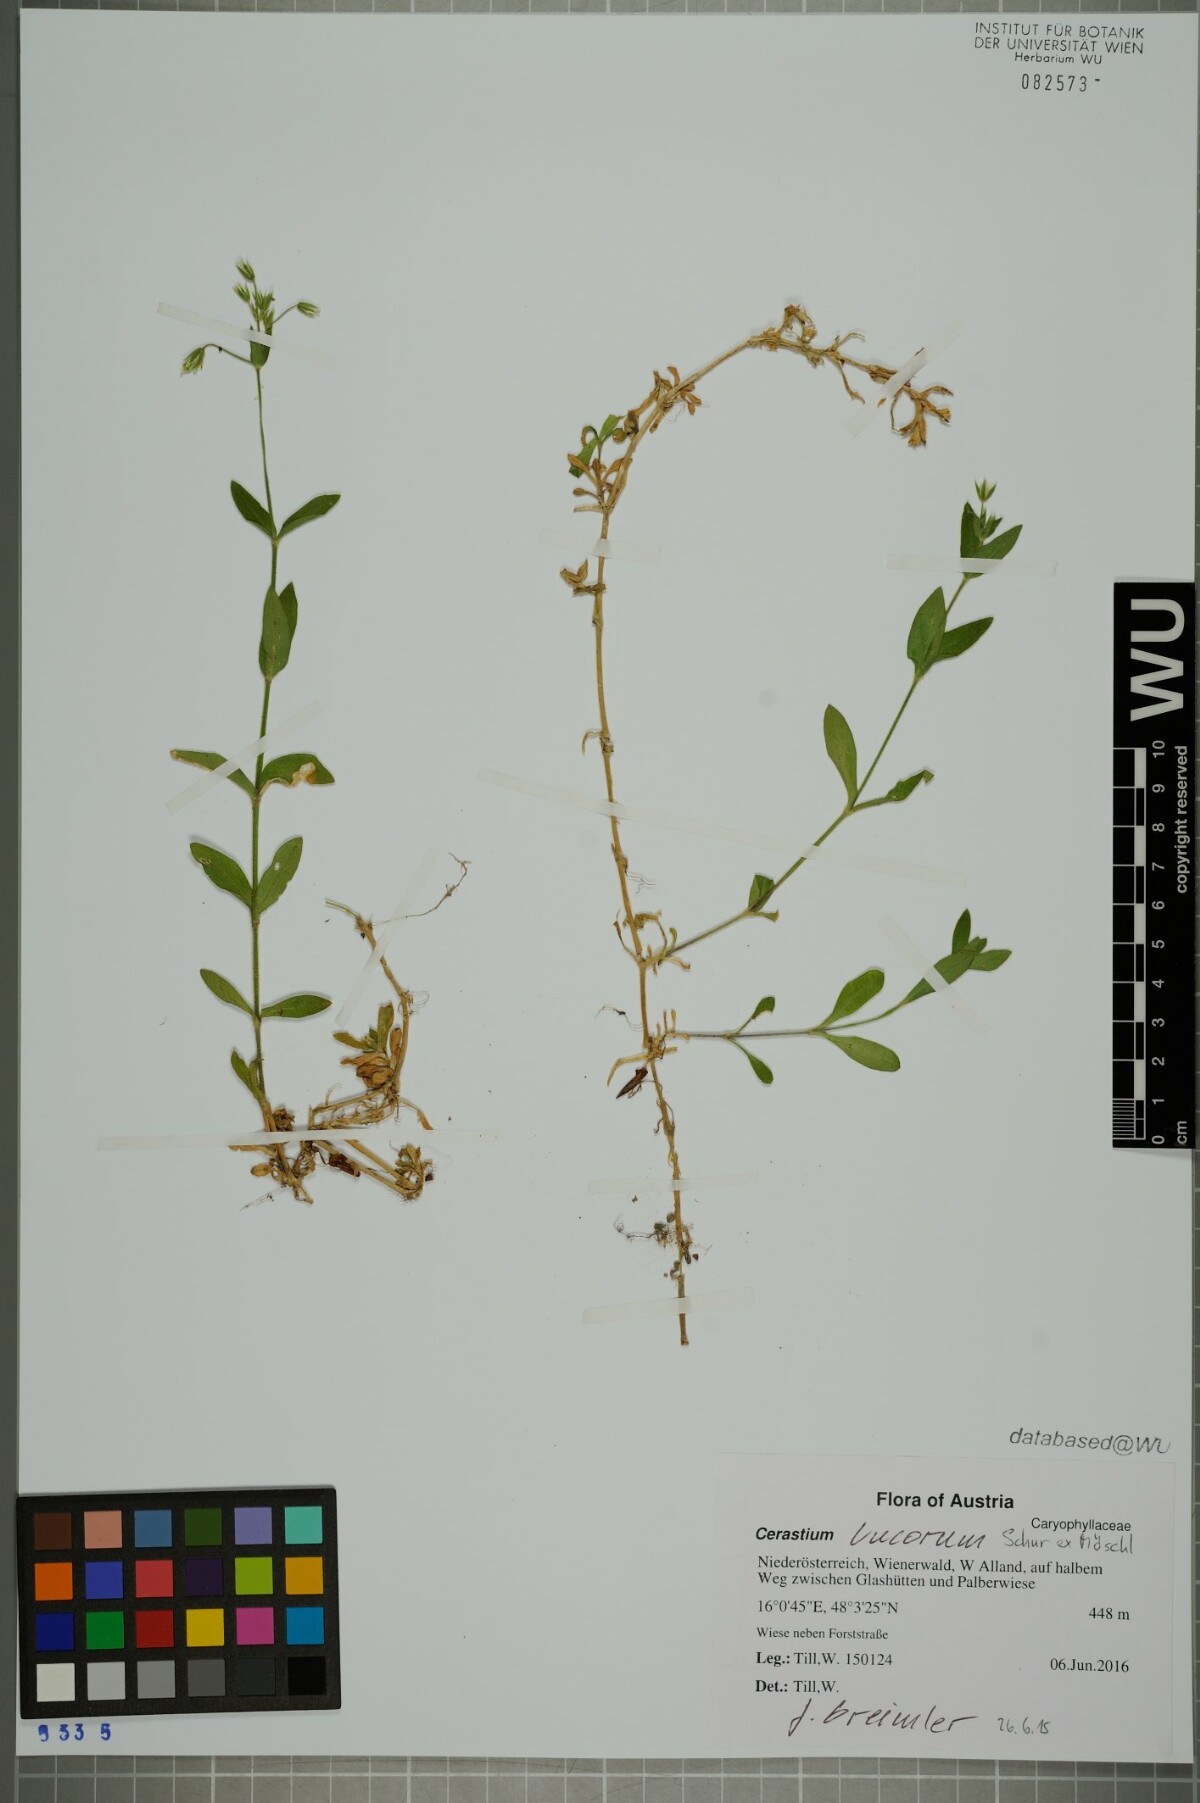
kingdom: Plantae
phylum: Tracheophyta
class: Magnoliopsida
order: Caryophyllales
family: Caryophyllaceae
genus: Cerastium
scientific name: Cerastium lucorum
